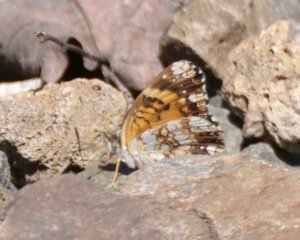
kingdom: Animalia
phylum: Arthropoda
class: Insecta
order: Lepidoptera
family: Nymphalidae
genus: Chlosyne
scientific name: Chlosyne nycteis
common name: Silvery Checkerspot
